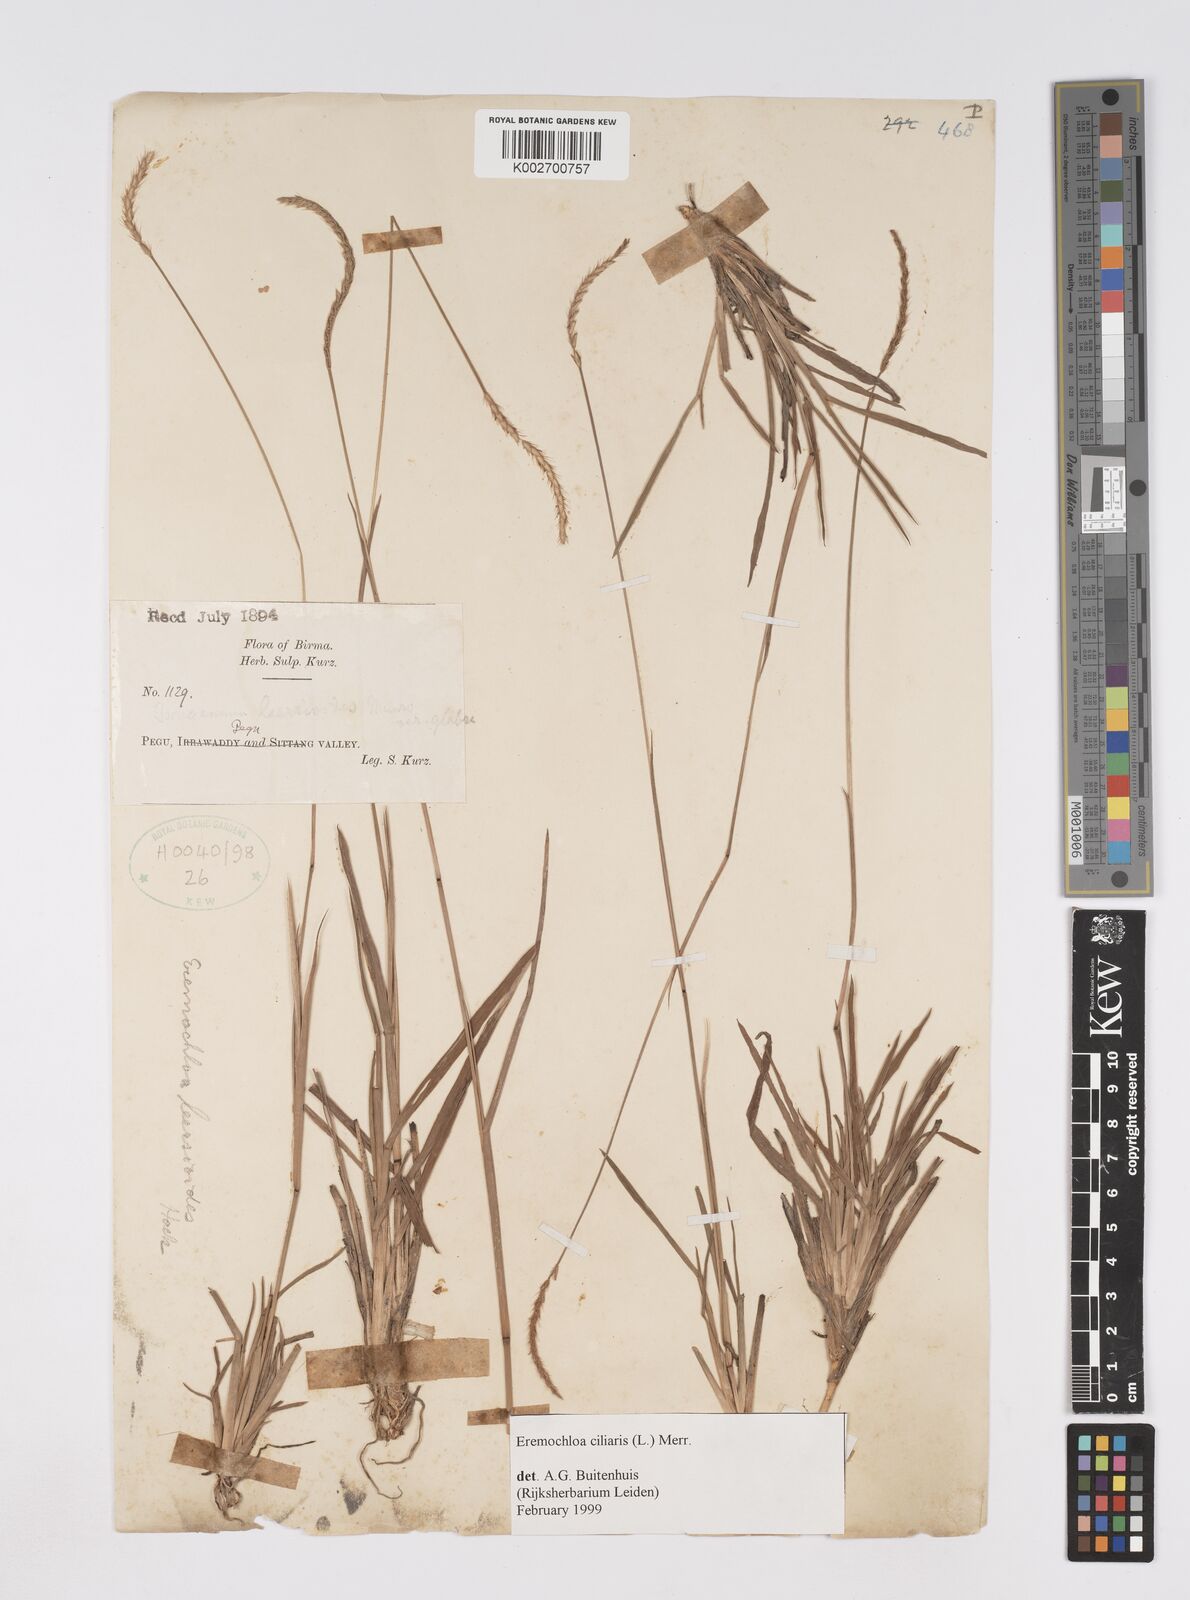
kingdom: Plantae
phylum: Tracheophyta
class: Liliopsida
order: Poales
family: Poaceae
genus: Eremochloa
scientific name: Eremochloa ciliaris
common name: Fringed centipede grass
